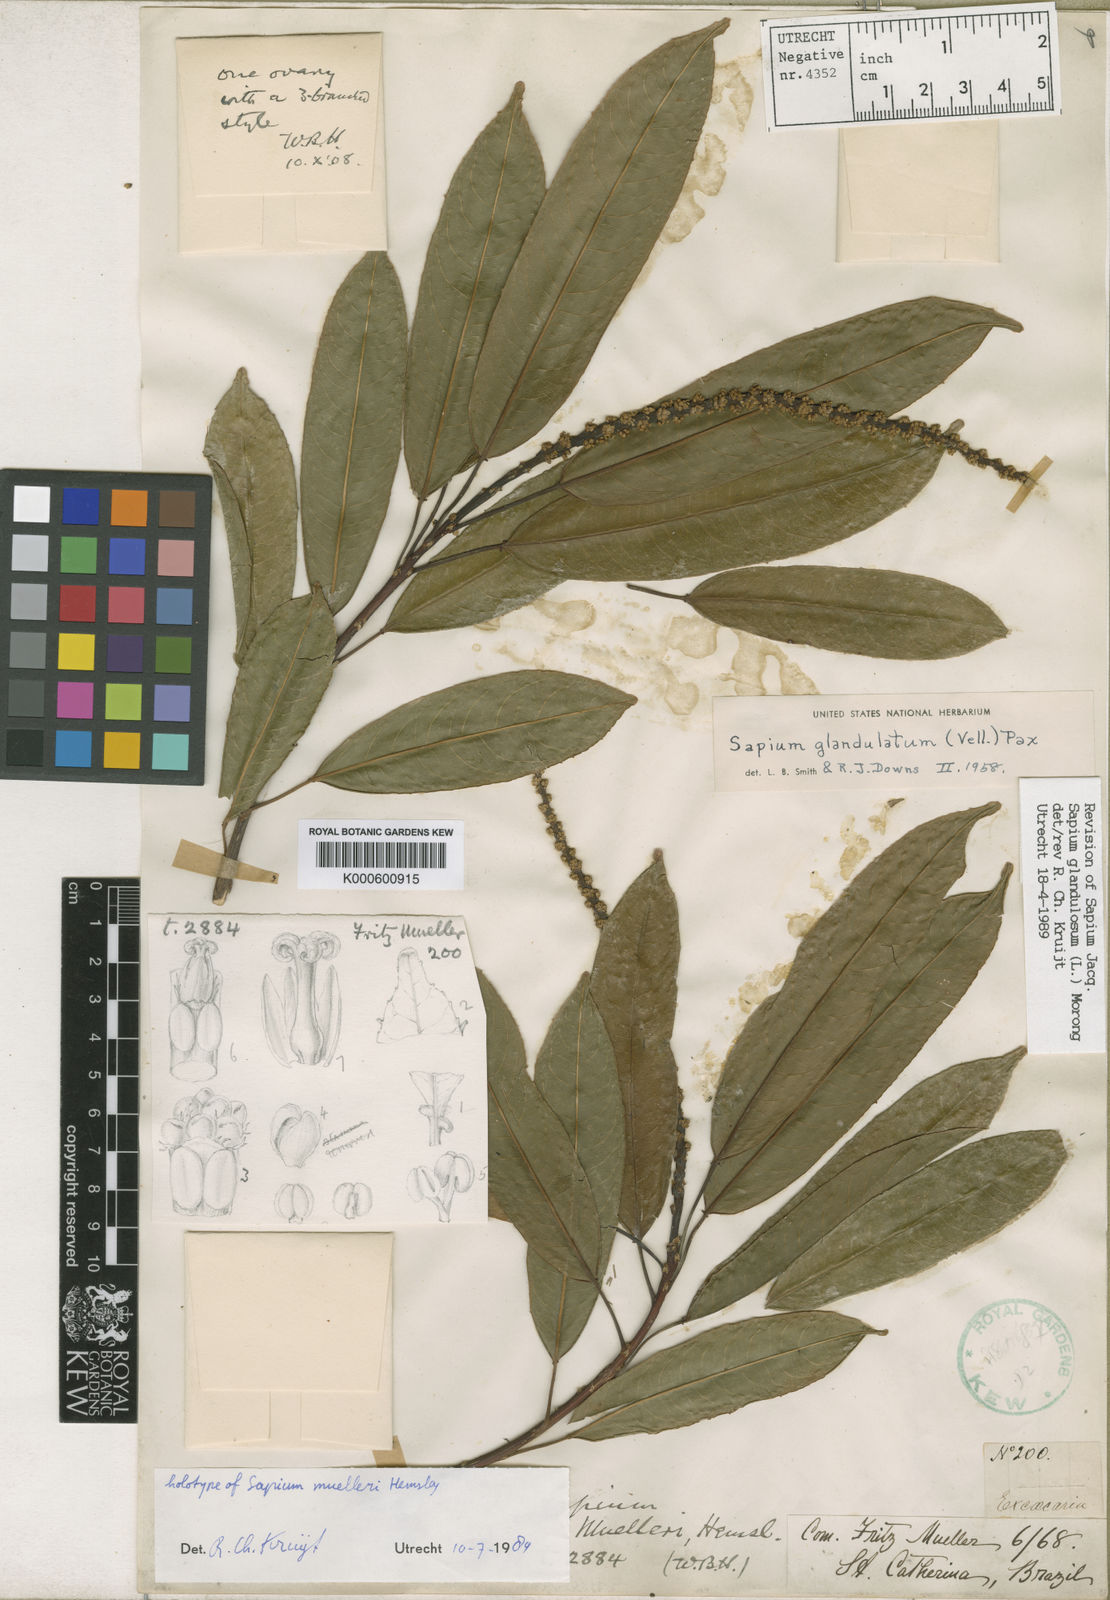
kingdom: Plantae
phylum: Tracheophyta
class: Magnoliopsida
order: Malpighiales
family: Euphorbiaceae
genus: Sapium
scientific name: Sapium glandulosum
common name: Milktree
